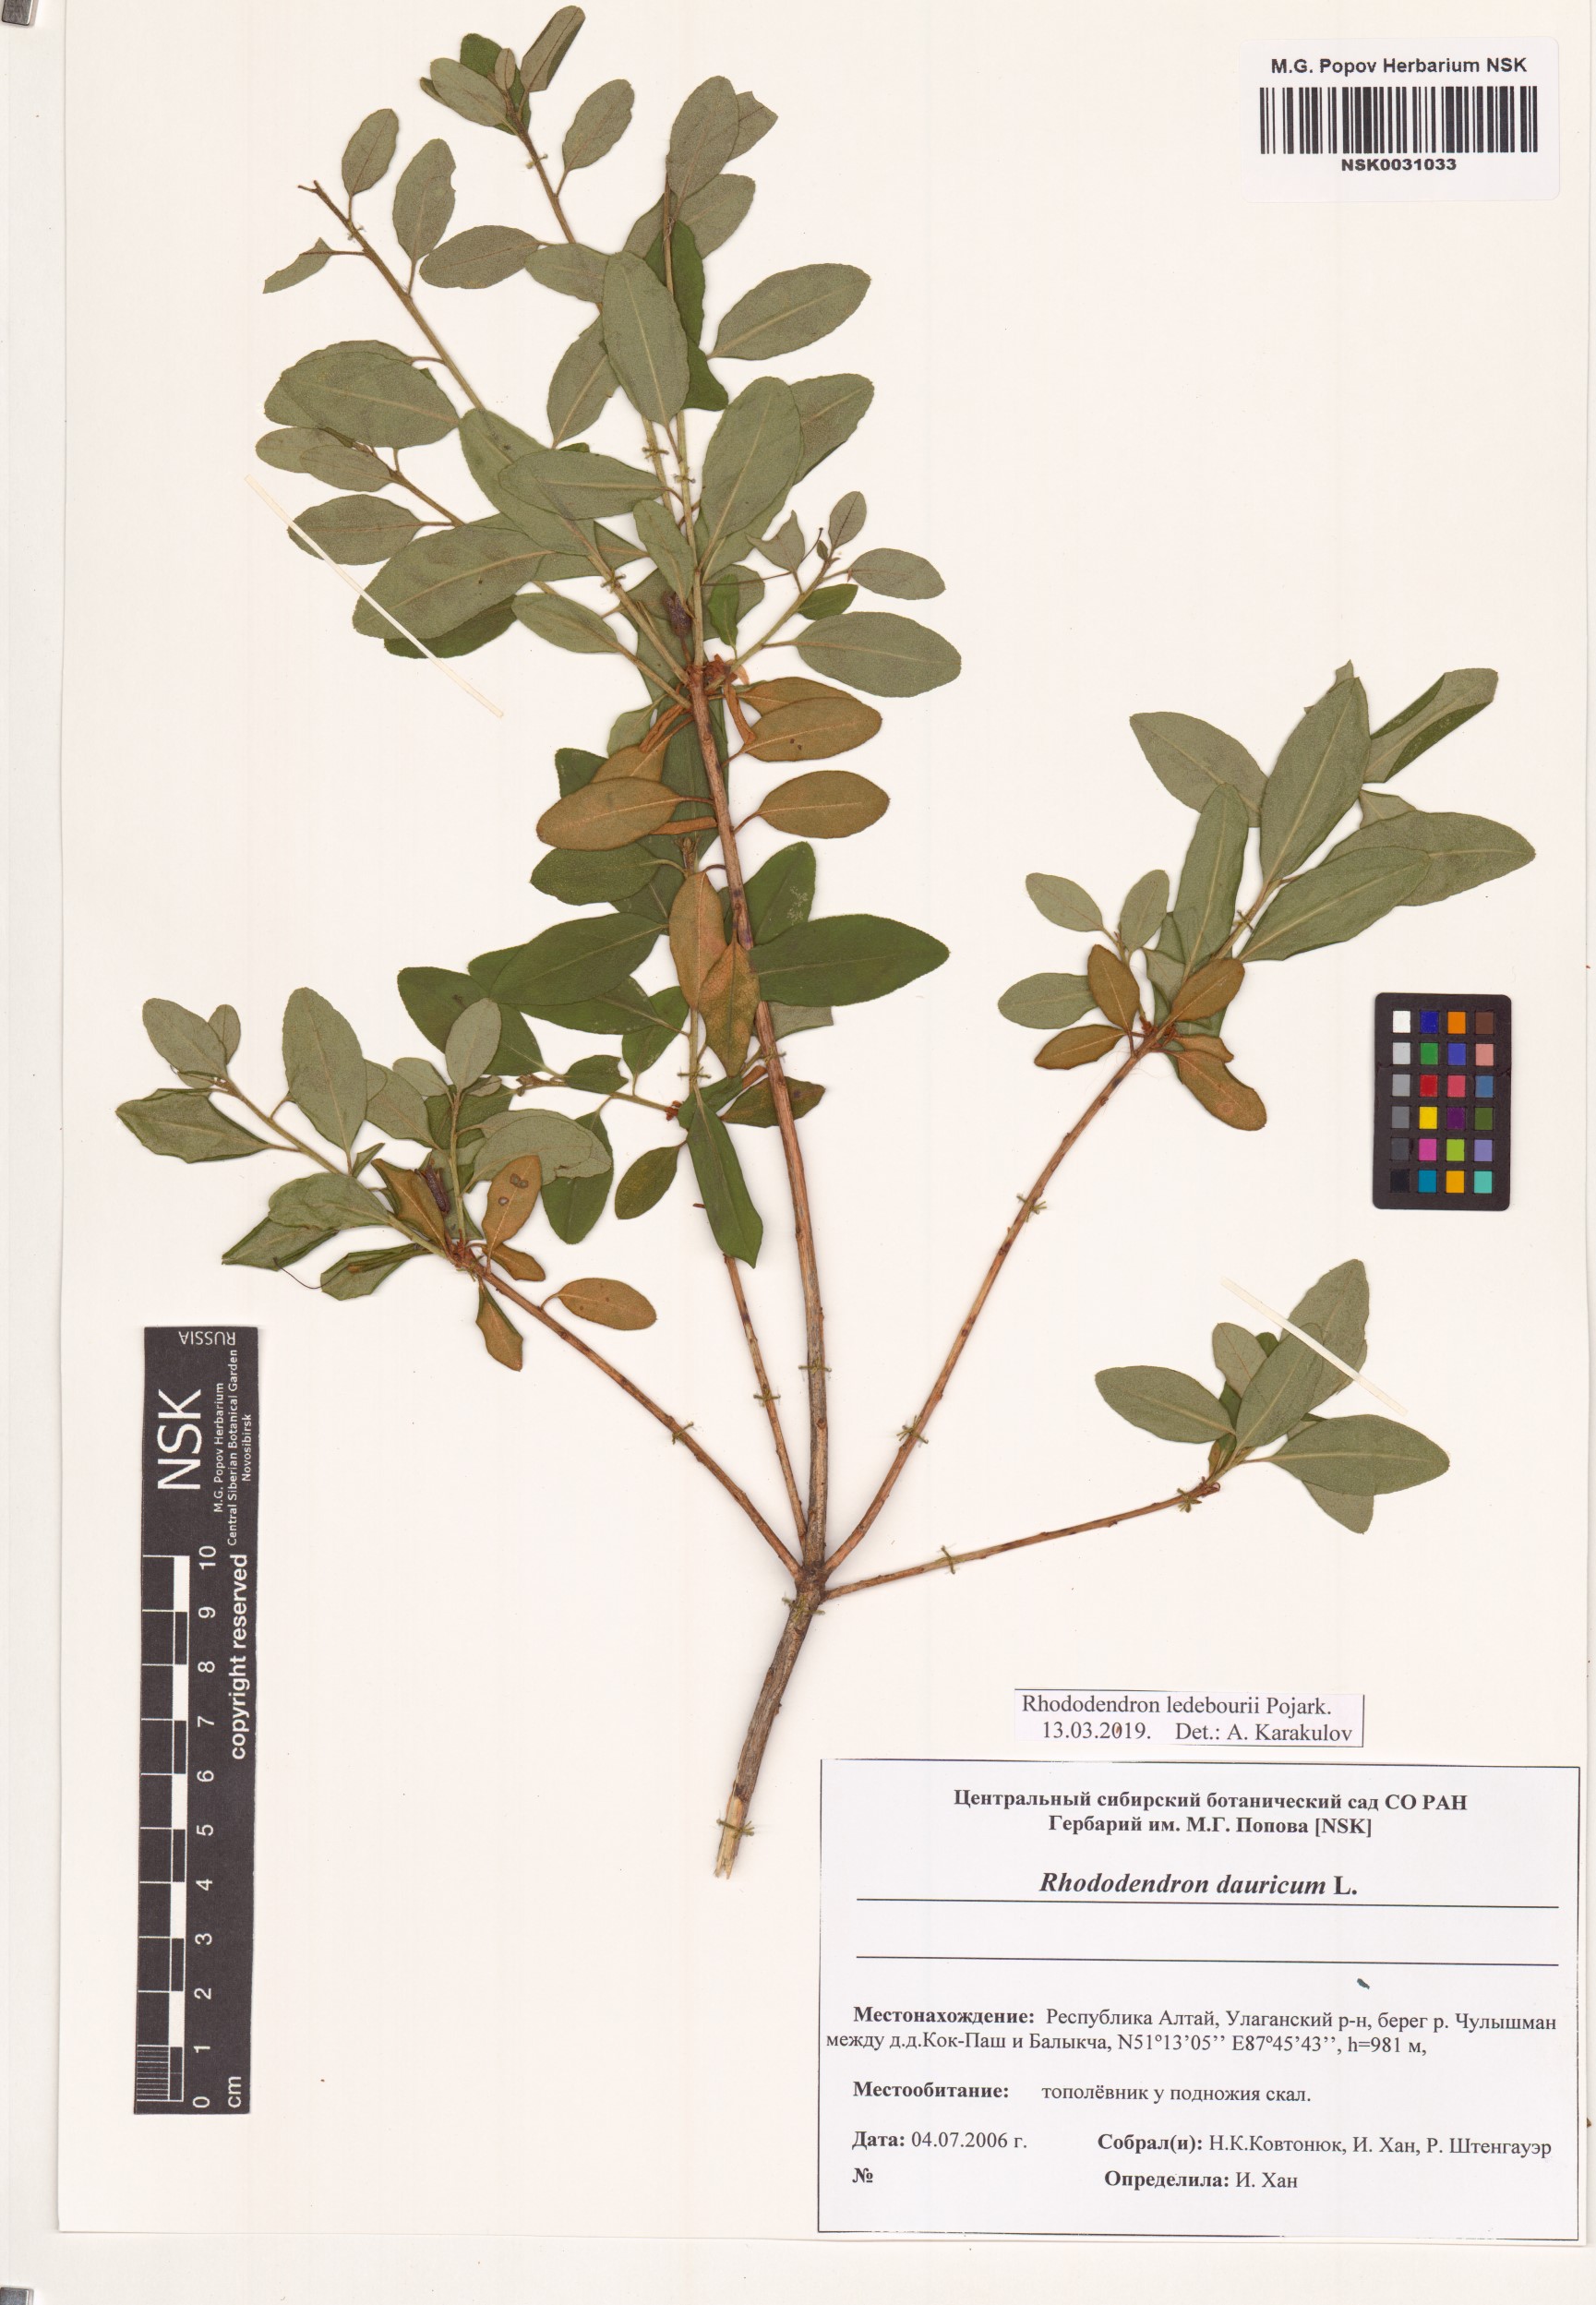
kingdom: Plantae
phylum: Tracheophyta
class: Magnoliopsida
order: Ericales
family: Ericaceae
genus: Rhododendron
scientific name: Rhododendron dauricum
